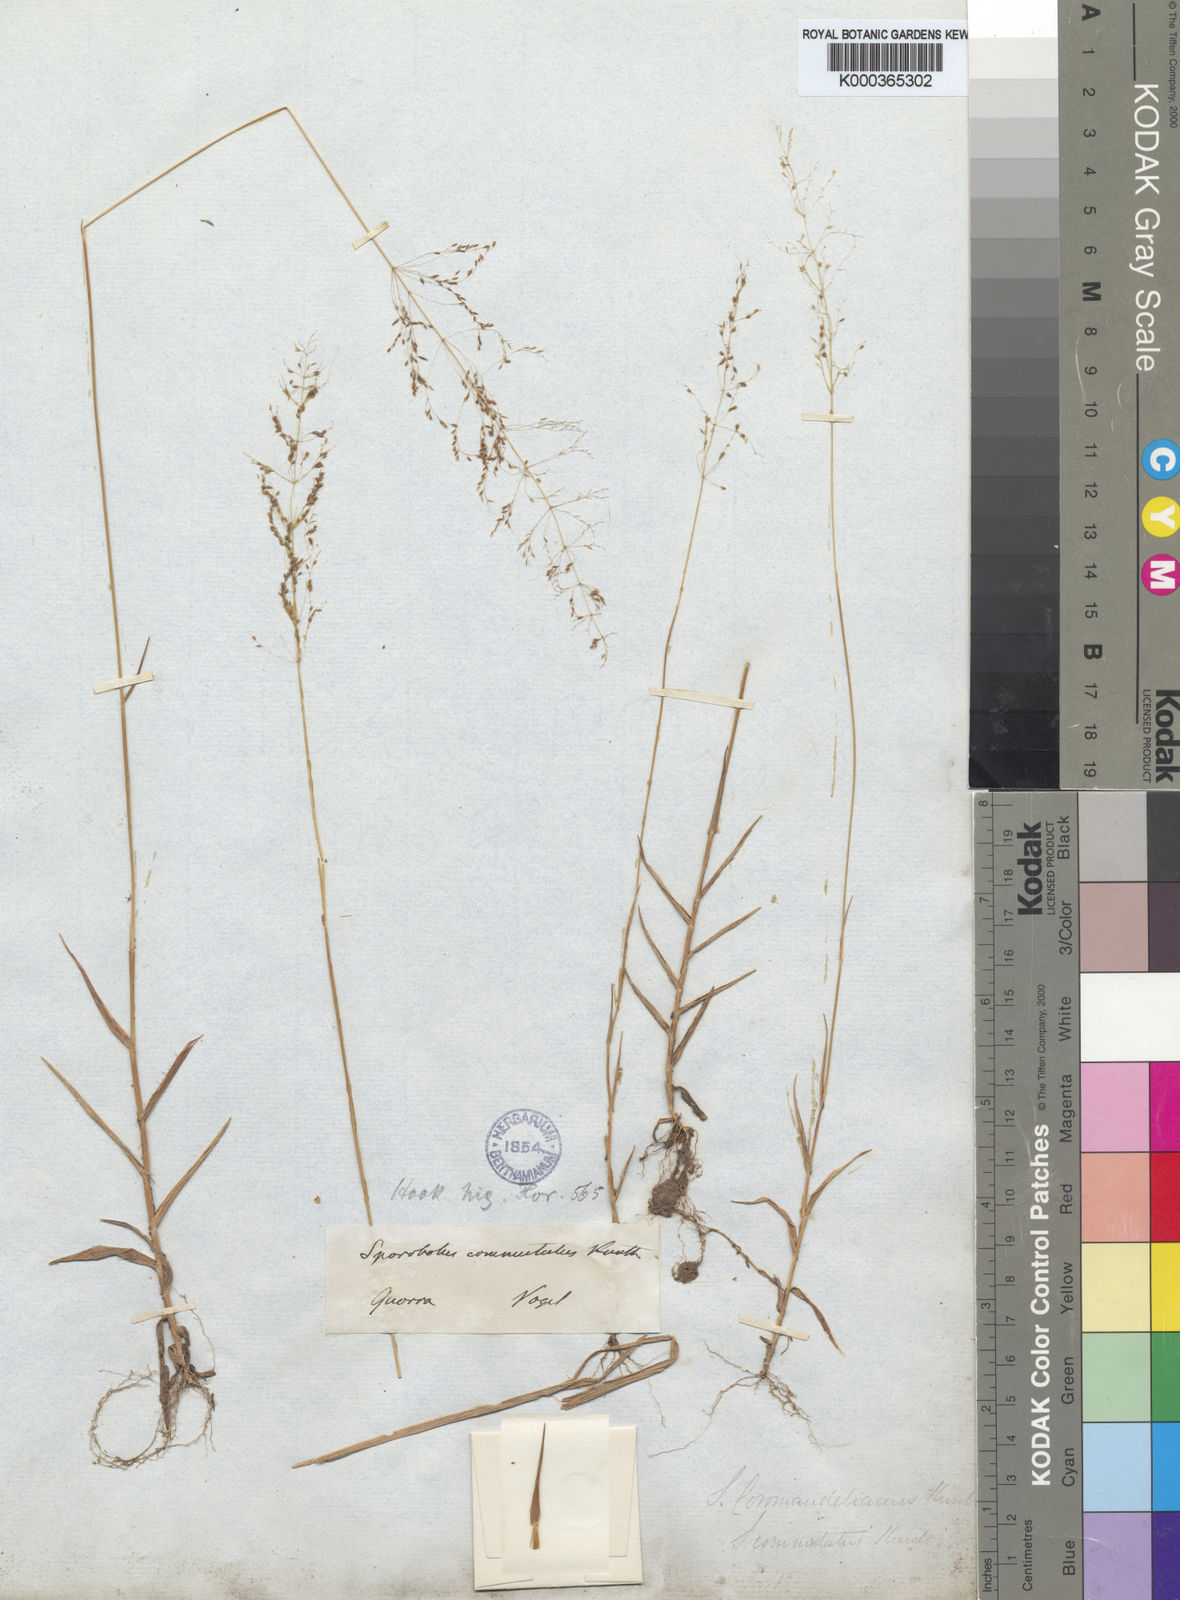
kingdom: Plantae
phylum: Tracheophyta
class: Liliopsida
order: Poales
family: Poaceae
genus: Sporobolus
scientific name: Sporobolus paniculatus
